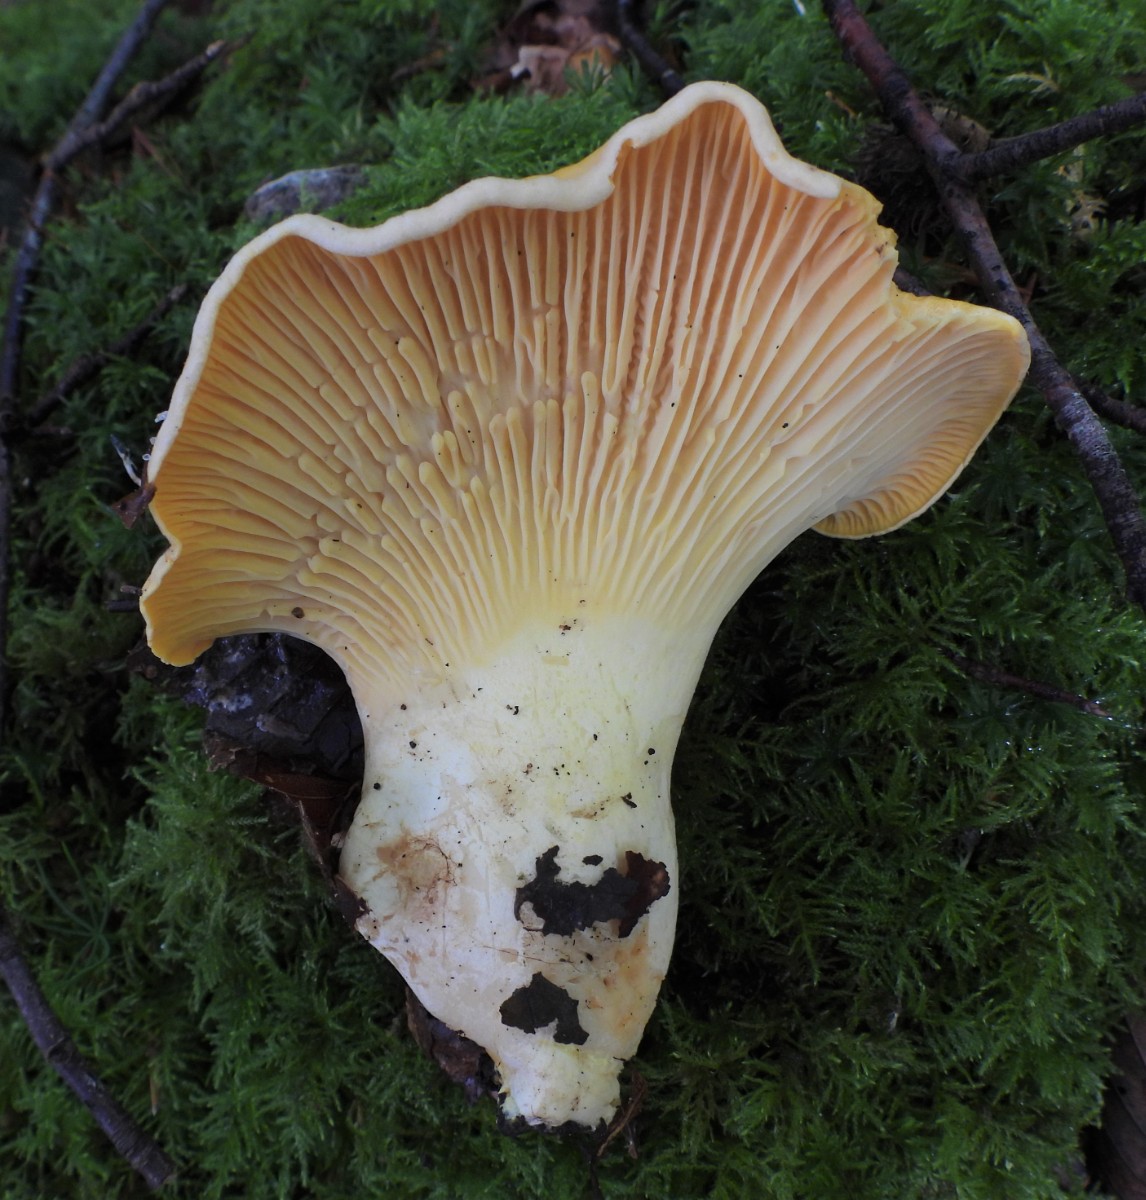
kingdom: Fungi
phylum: Basidiomycota
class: Agaricomycetes
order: Cantharellales
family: Hydnaceae
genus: Cantharellus
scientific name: Cantharellus cibarius
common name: almindelig kantarel
